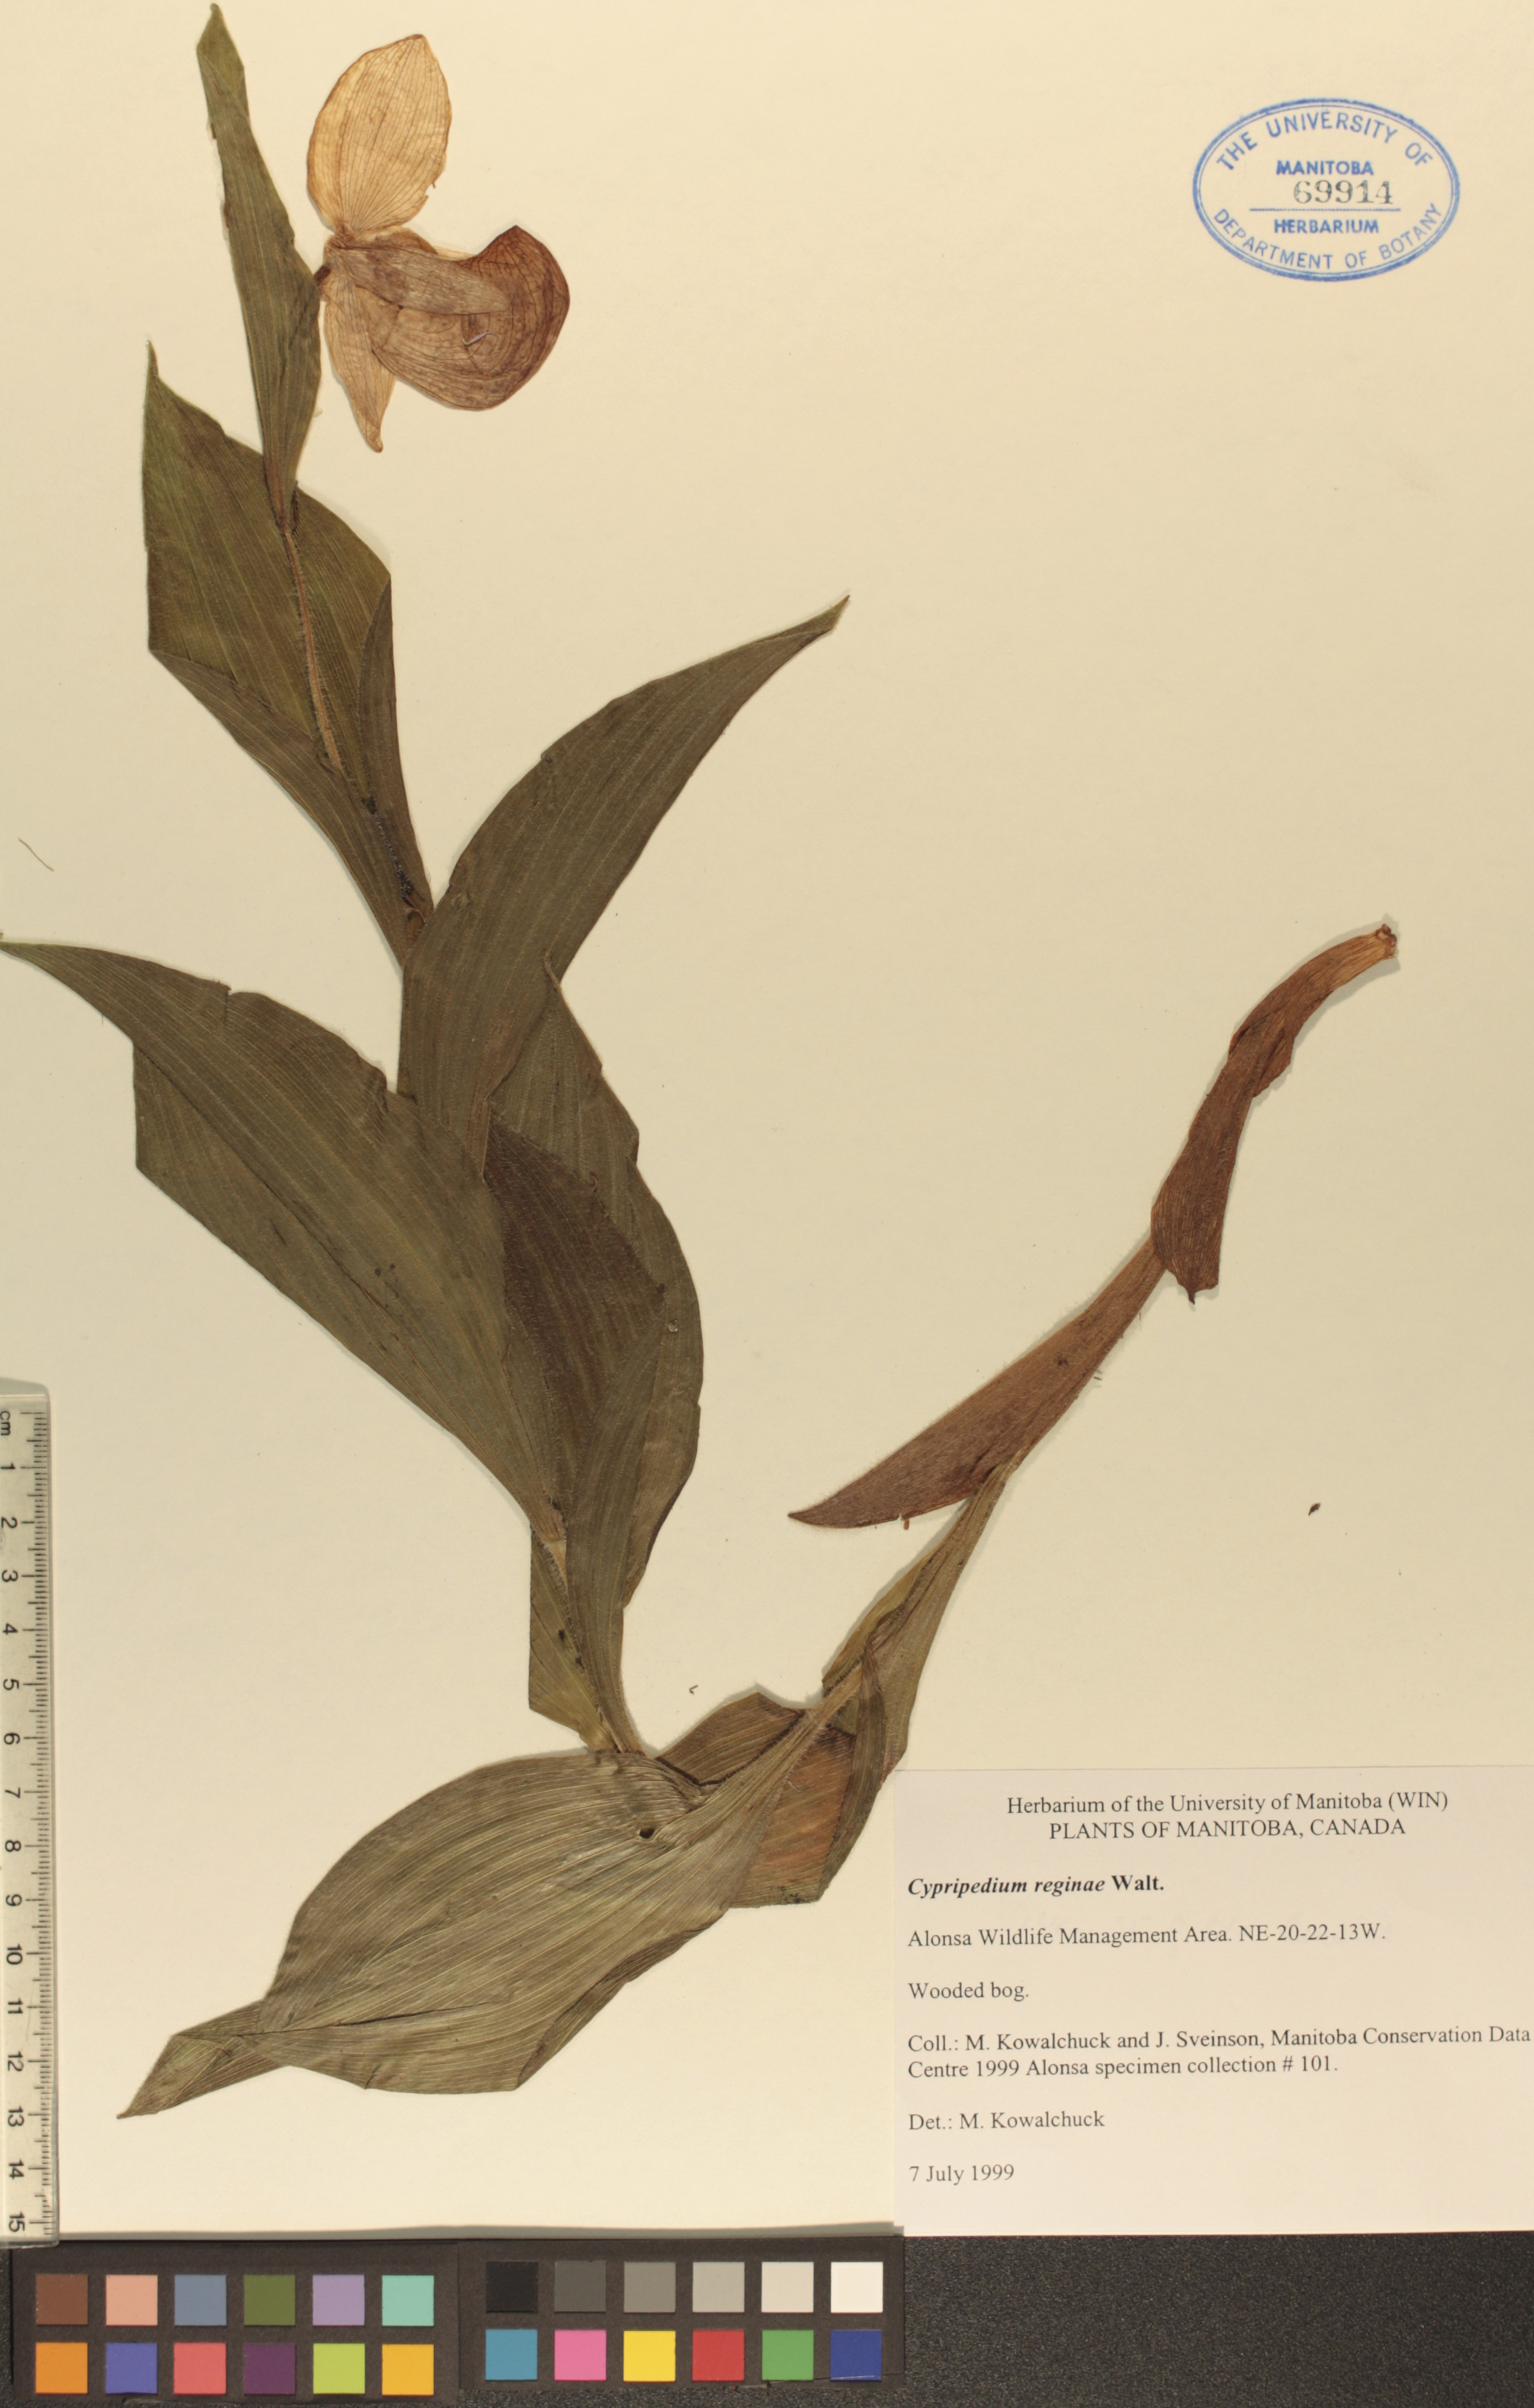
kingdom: Plantae
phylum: Tracheophyta
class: Liliopsida
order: Asparagales
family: Orchidaceae
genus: Cypripedium
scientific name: Cypripedium reginae
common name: Queen lady's-slipper
